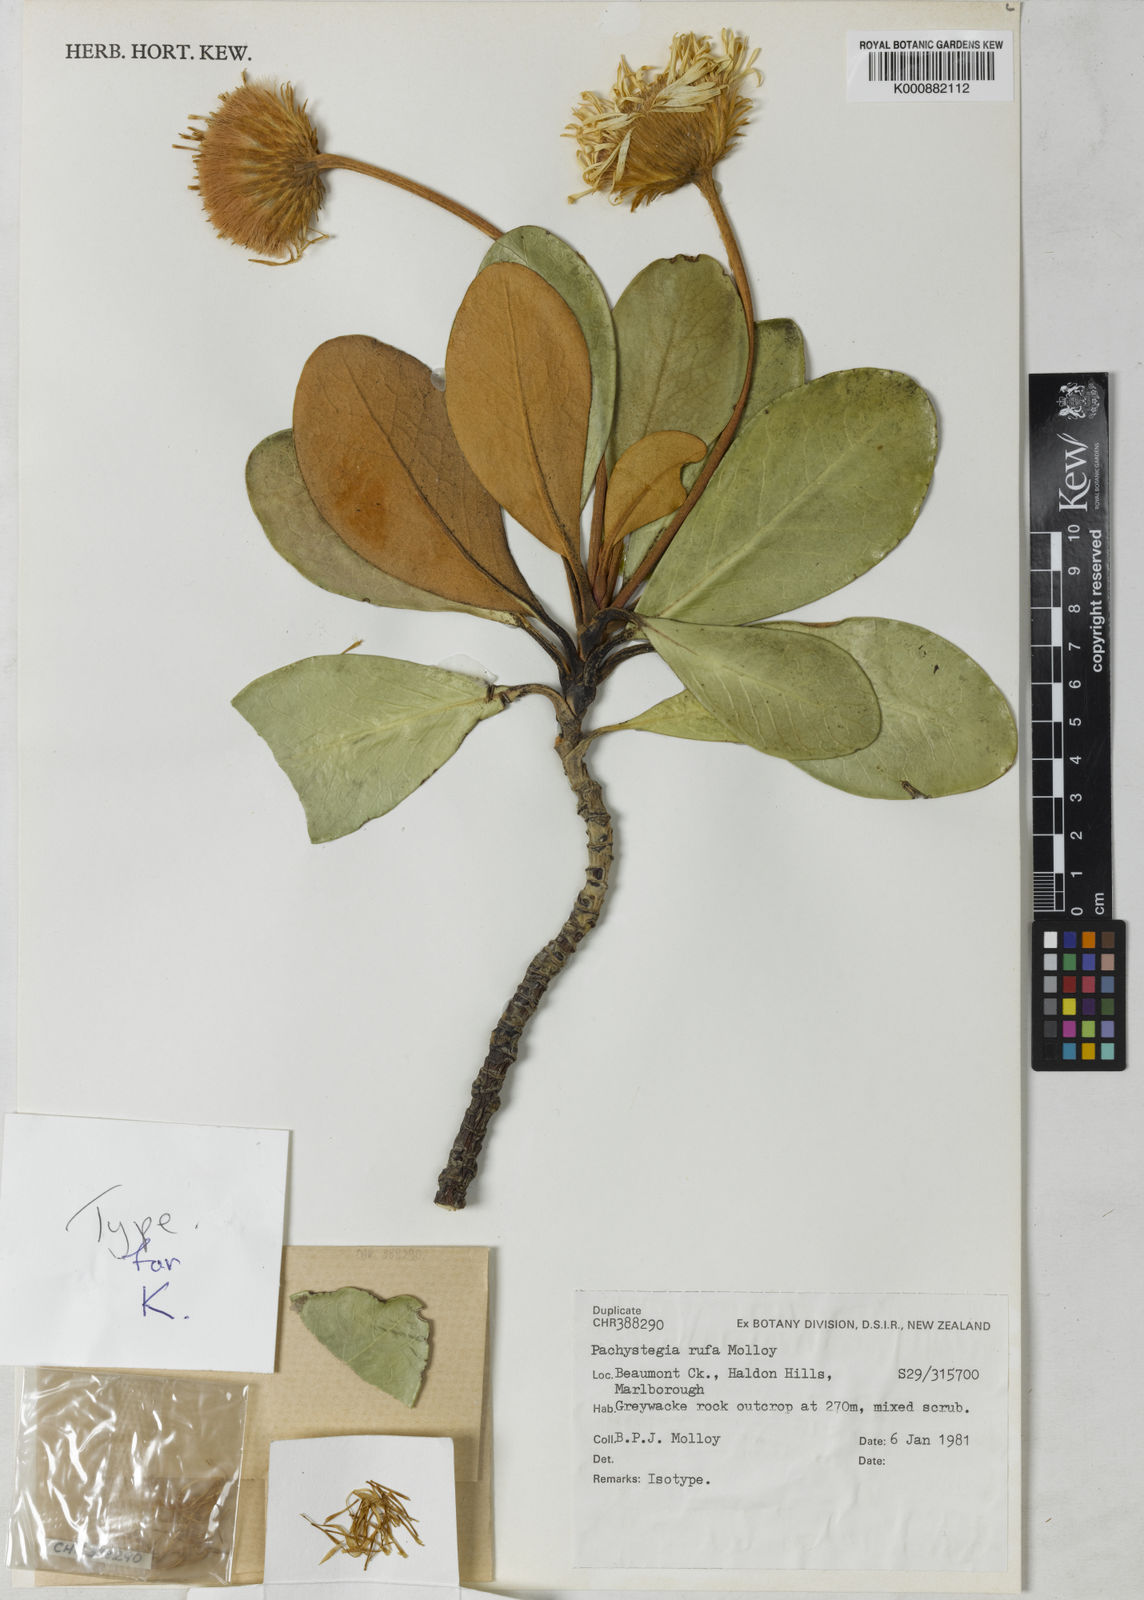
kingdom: Plantae
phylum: Tracheophyta
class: Magnoliopsida
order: Asterales
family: Asteraceae
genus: Pachystegia
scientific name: Pachystegia rufa
